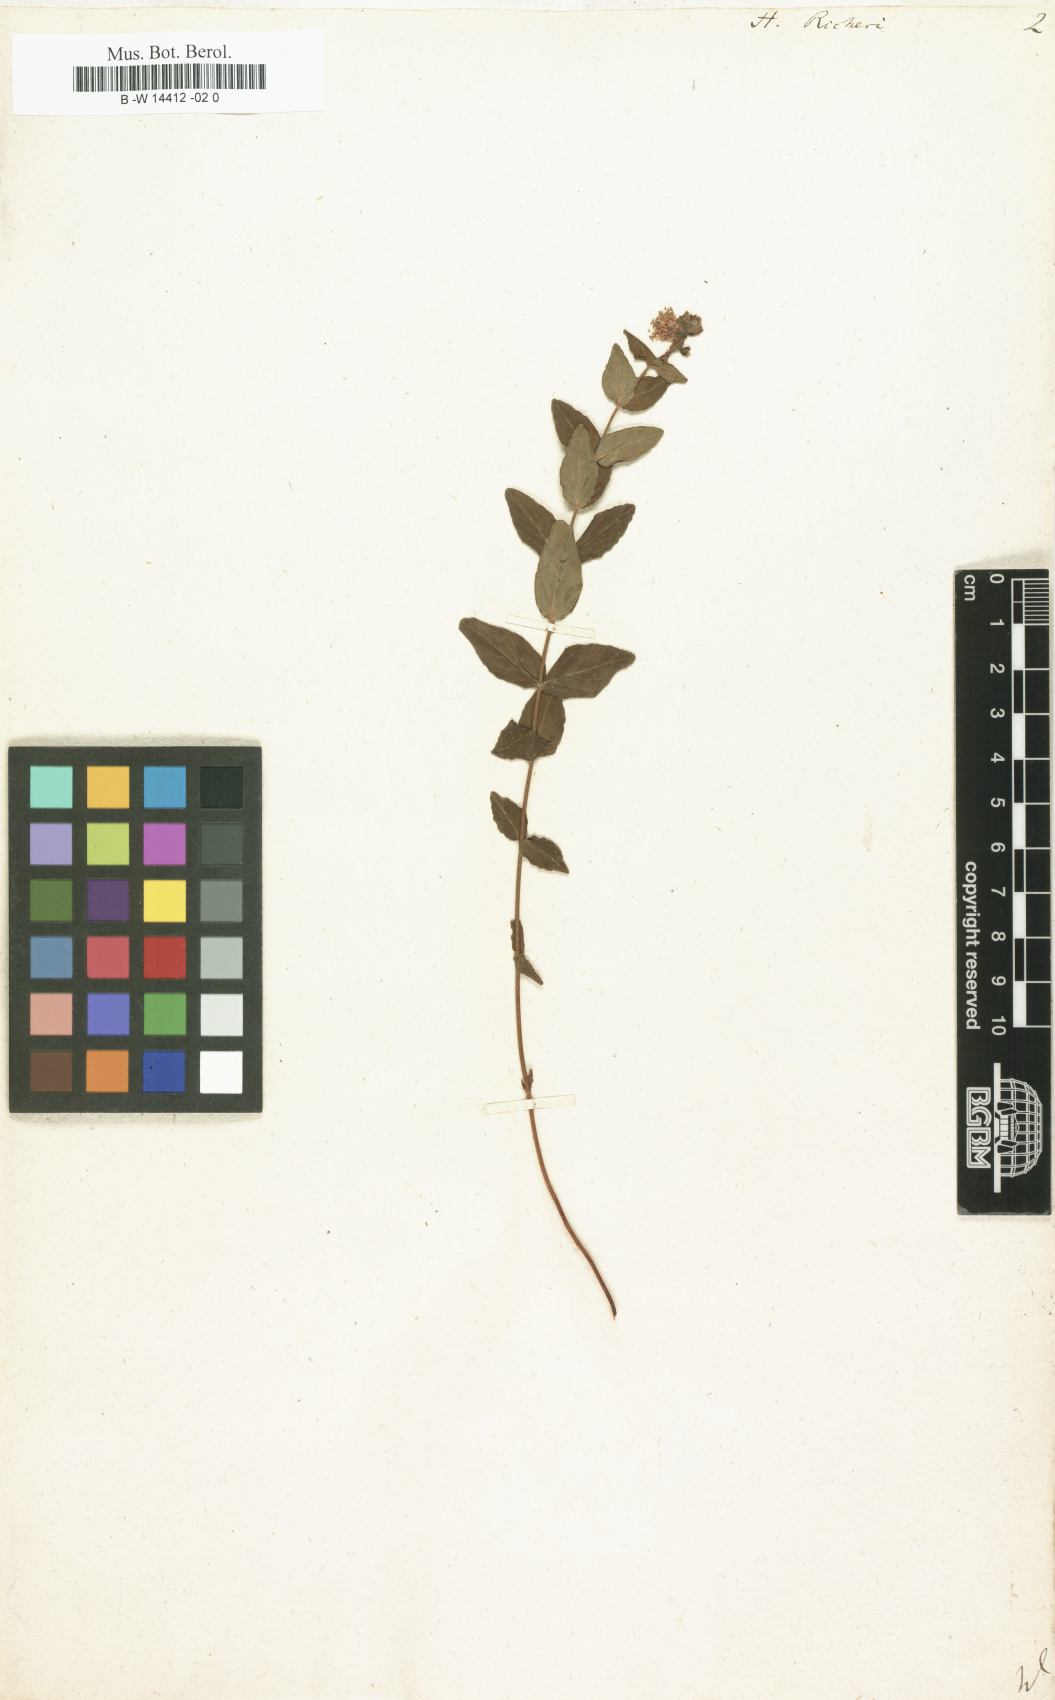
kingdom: Plantae
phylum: Tracheophyta
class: Magnoliopsida
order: Malpighiales
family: Hypericaceae
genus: Hypericum
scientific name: Hypericum richeri
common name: Alpine st john's-wort
